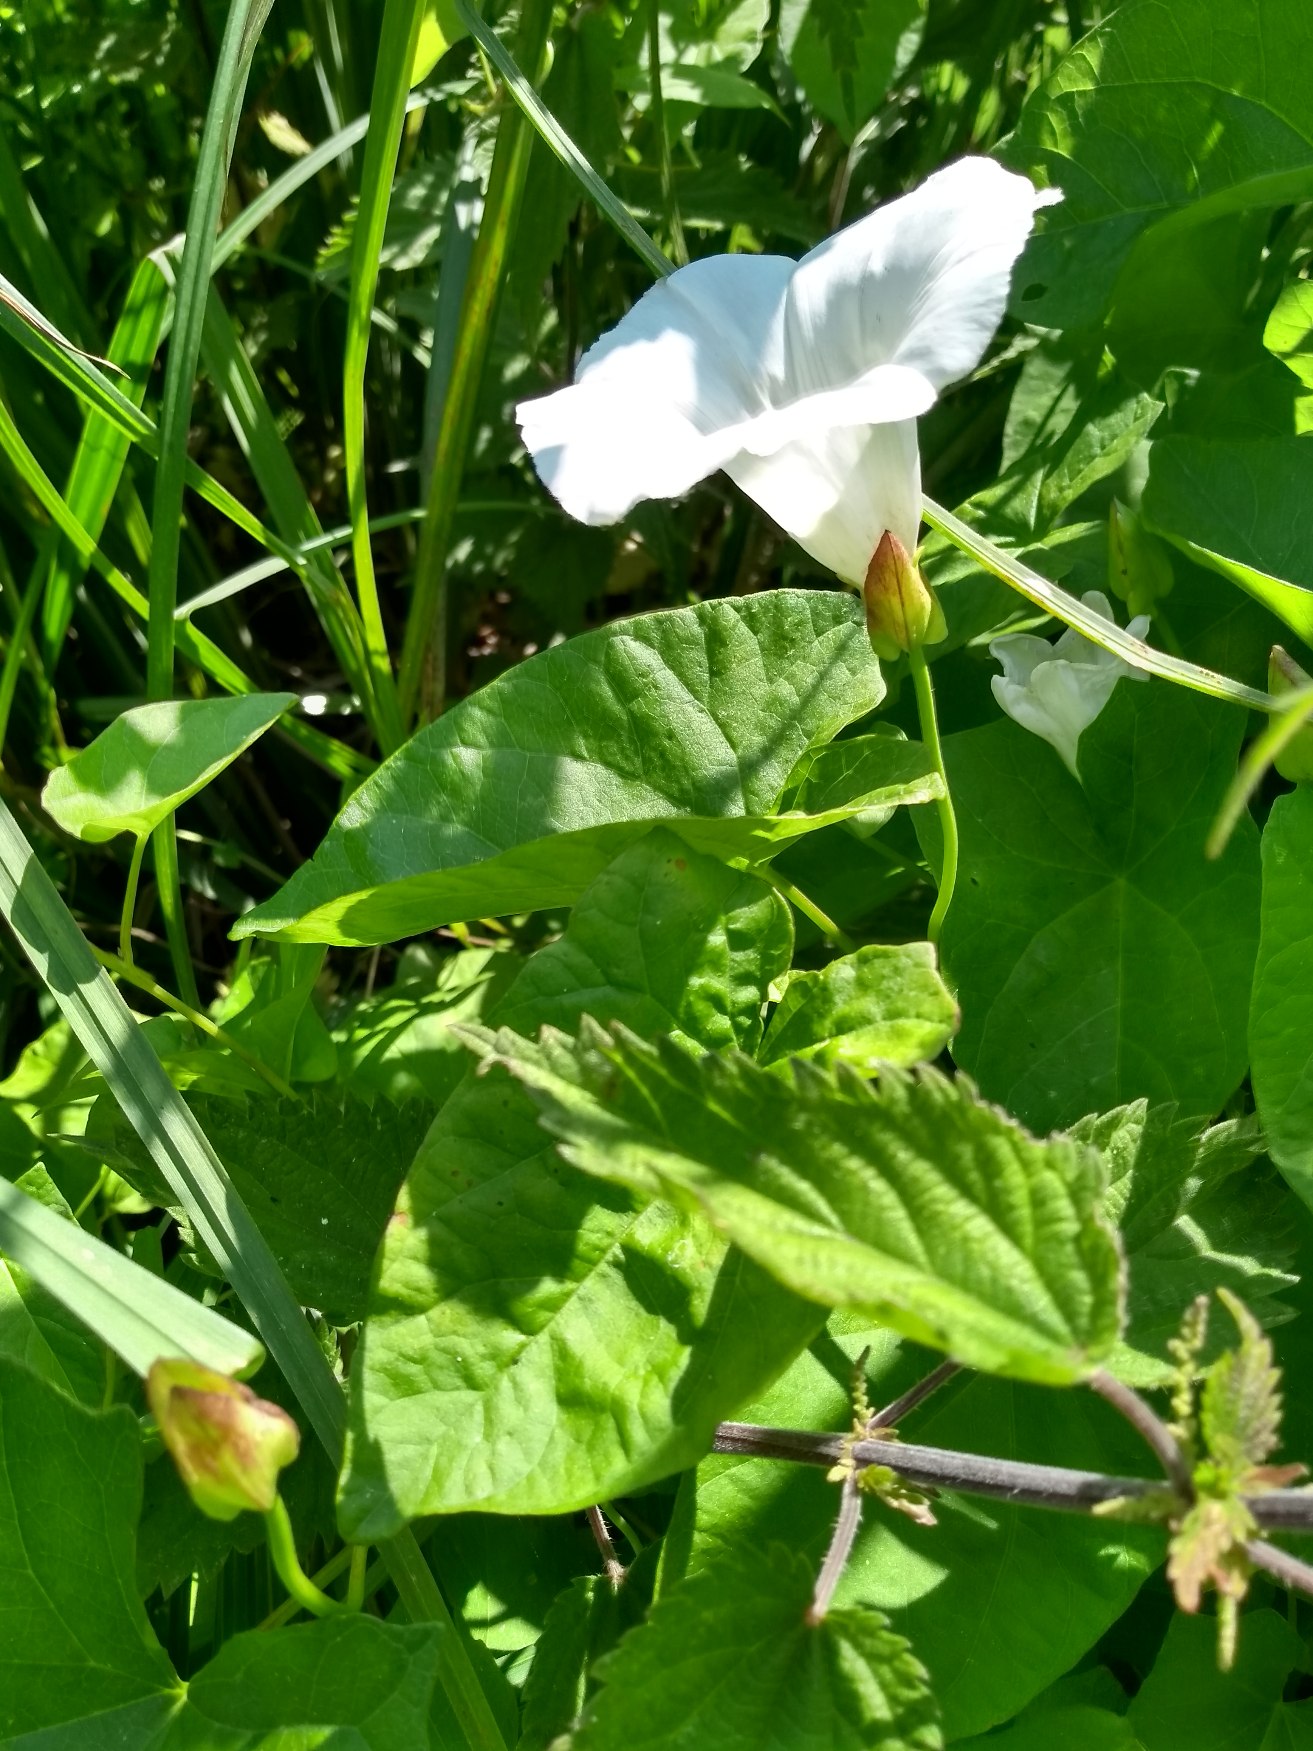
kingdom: Plantae
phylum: Tracheophyta
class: Magnoliopsida
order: Solanales
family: Convolvulaceae
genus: Calystegia
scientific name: Calystegia sepium
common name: Gærde-snerle
